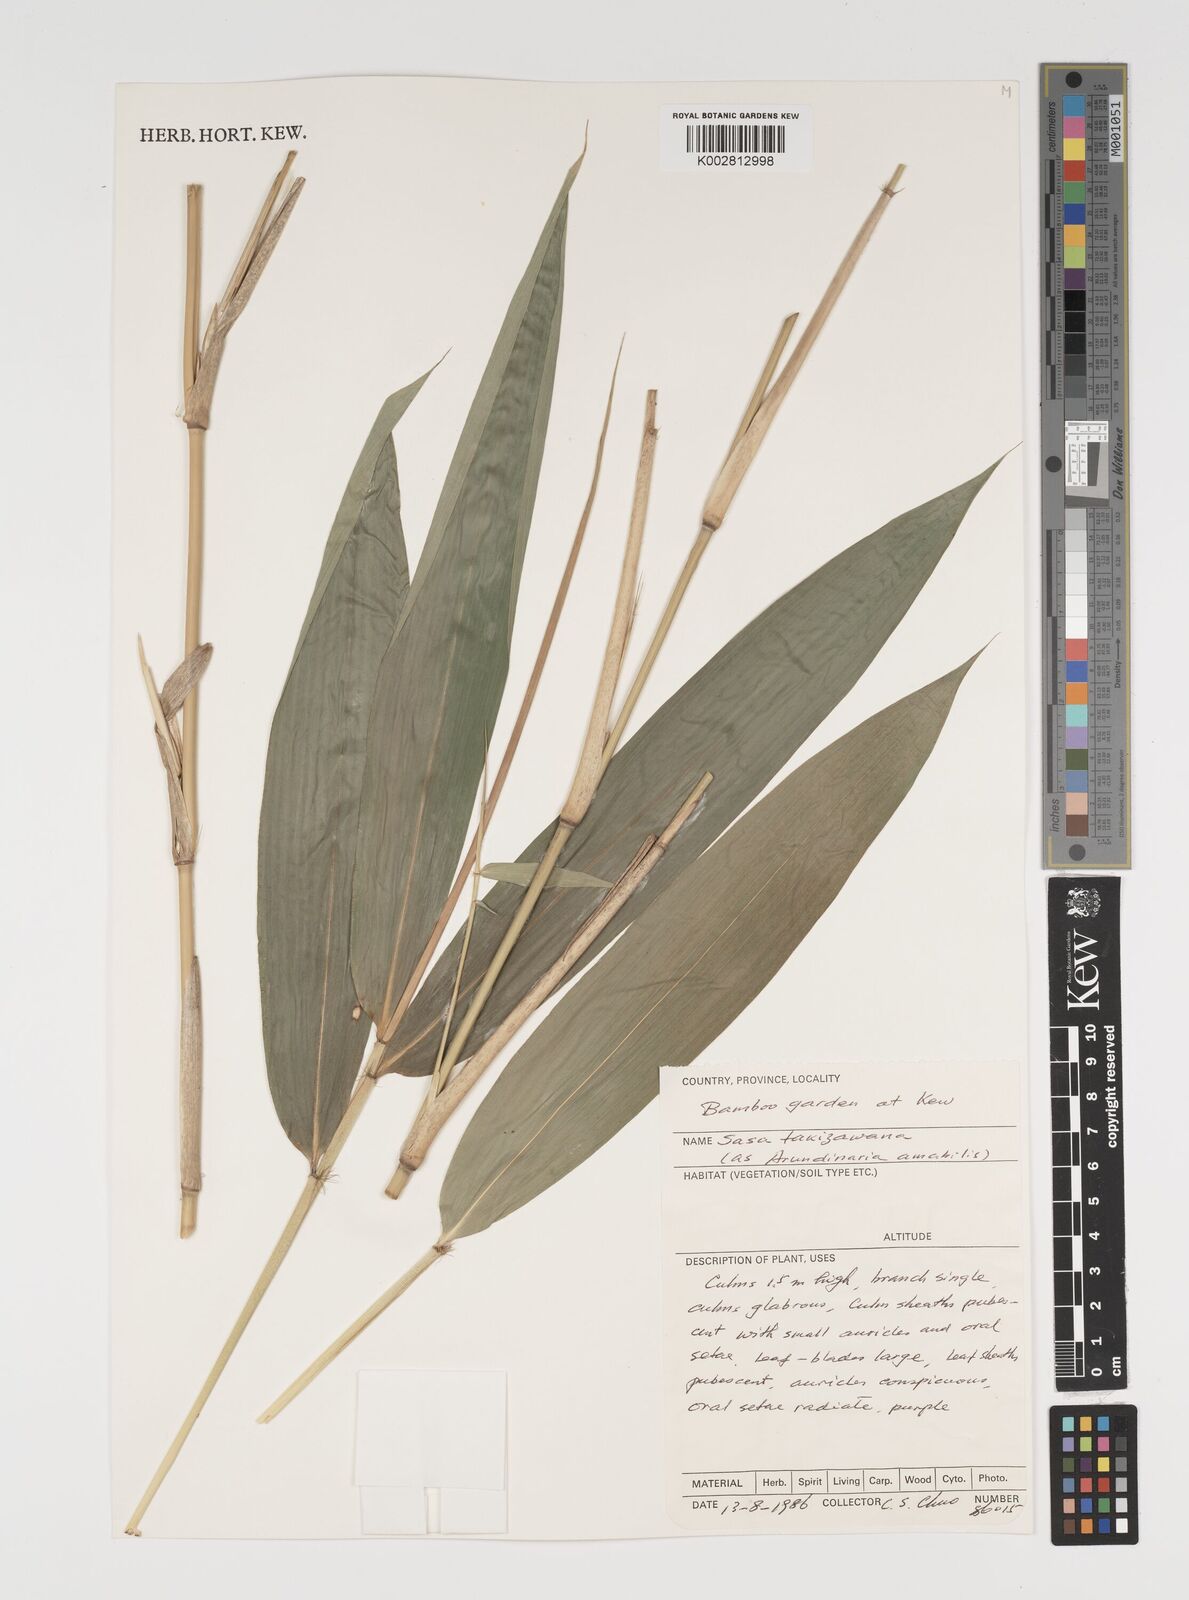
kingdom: Plantae
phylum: Tracheophyta
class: Liliopsida
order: Poales
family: Poaceae
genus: Sasa
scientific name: Sasa takizawana
